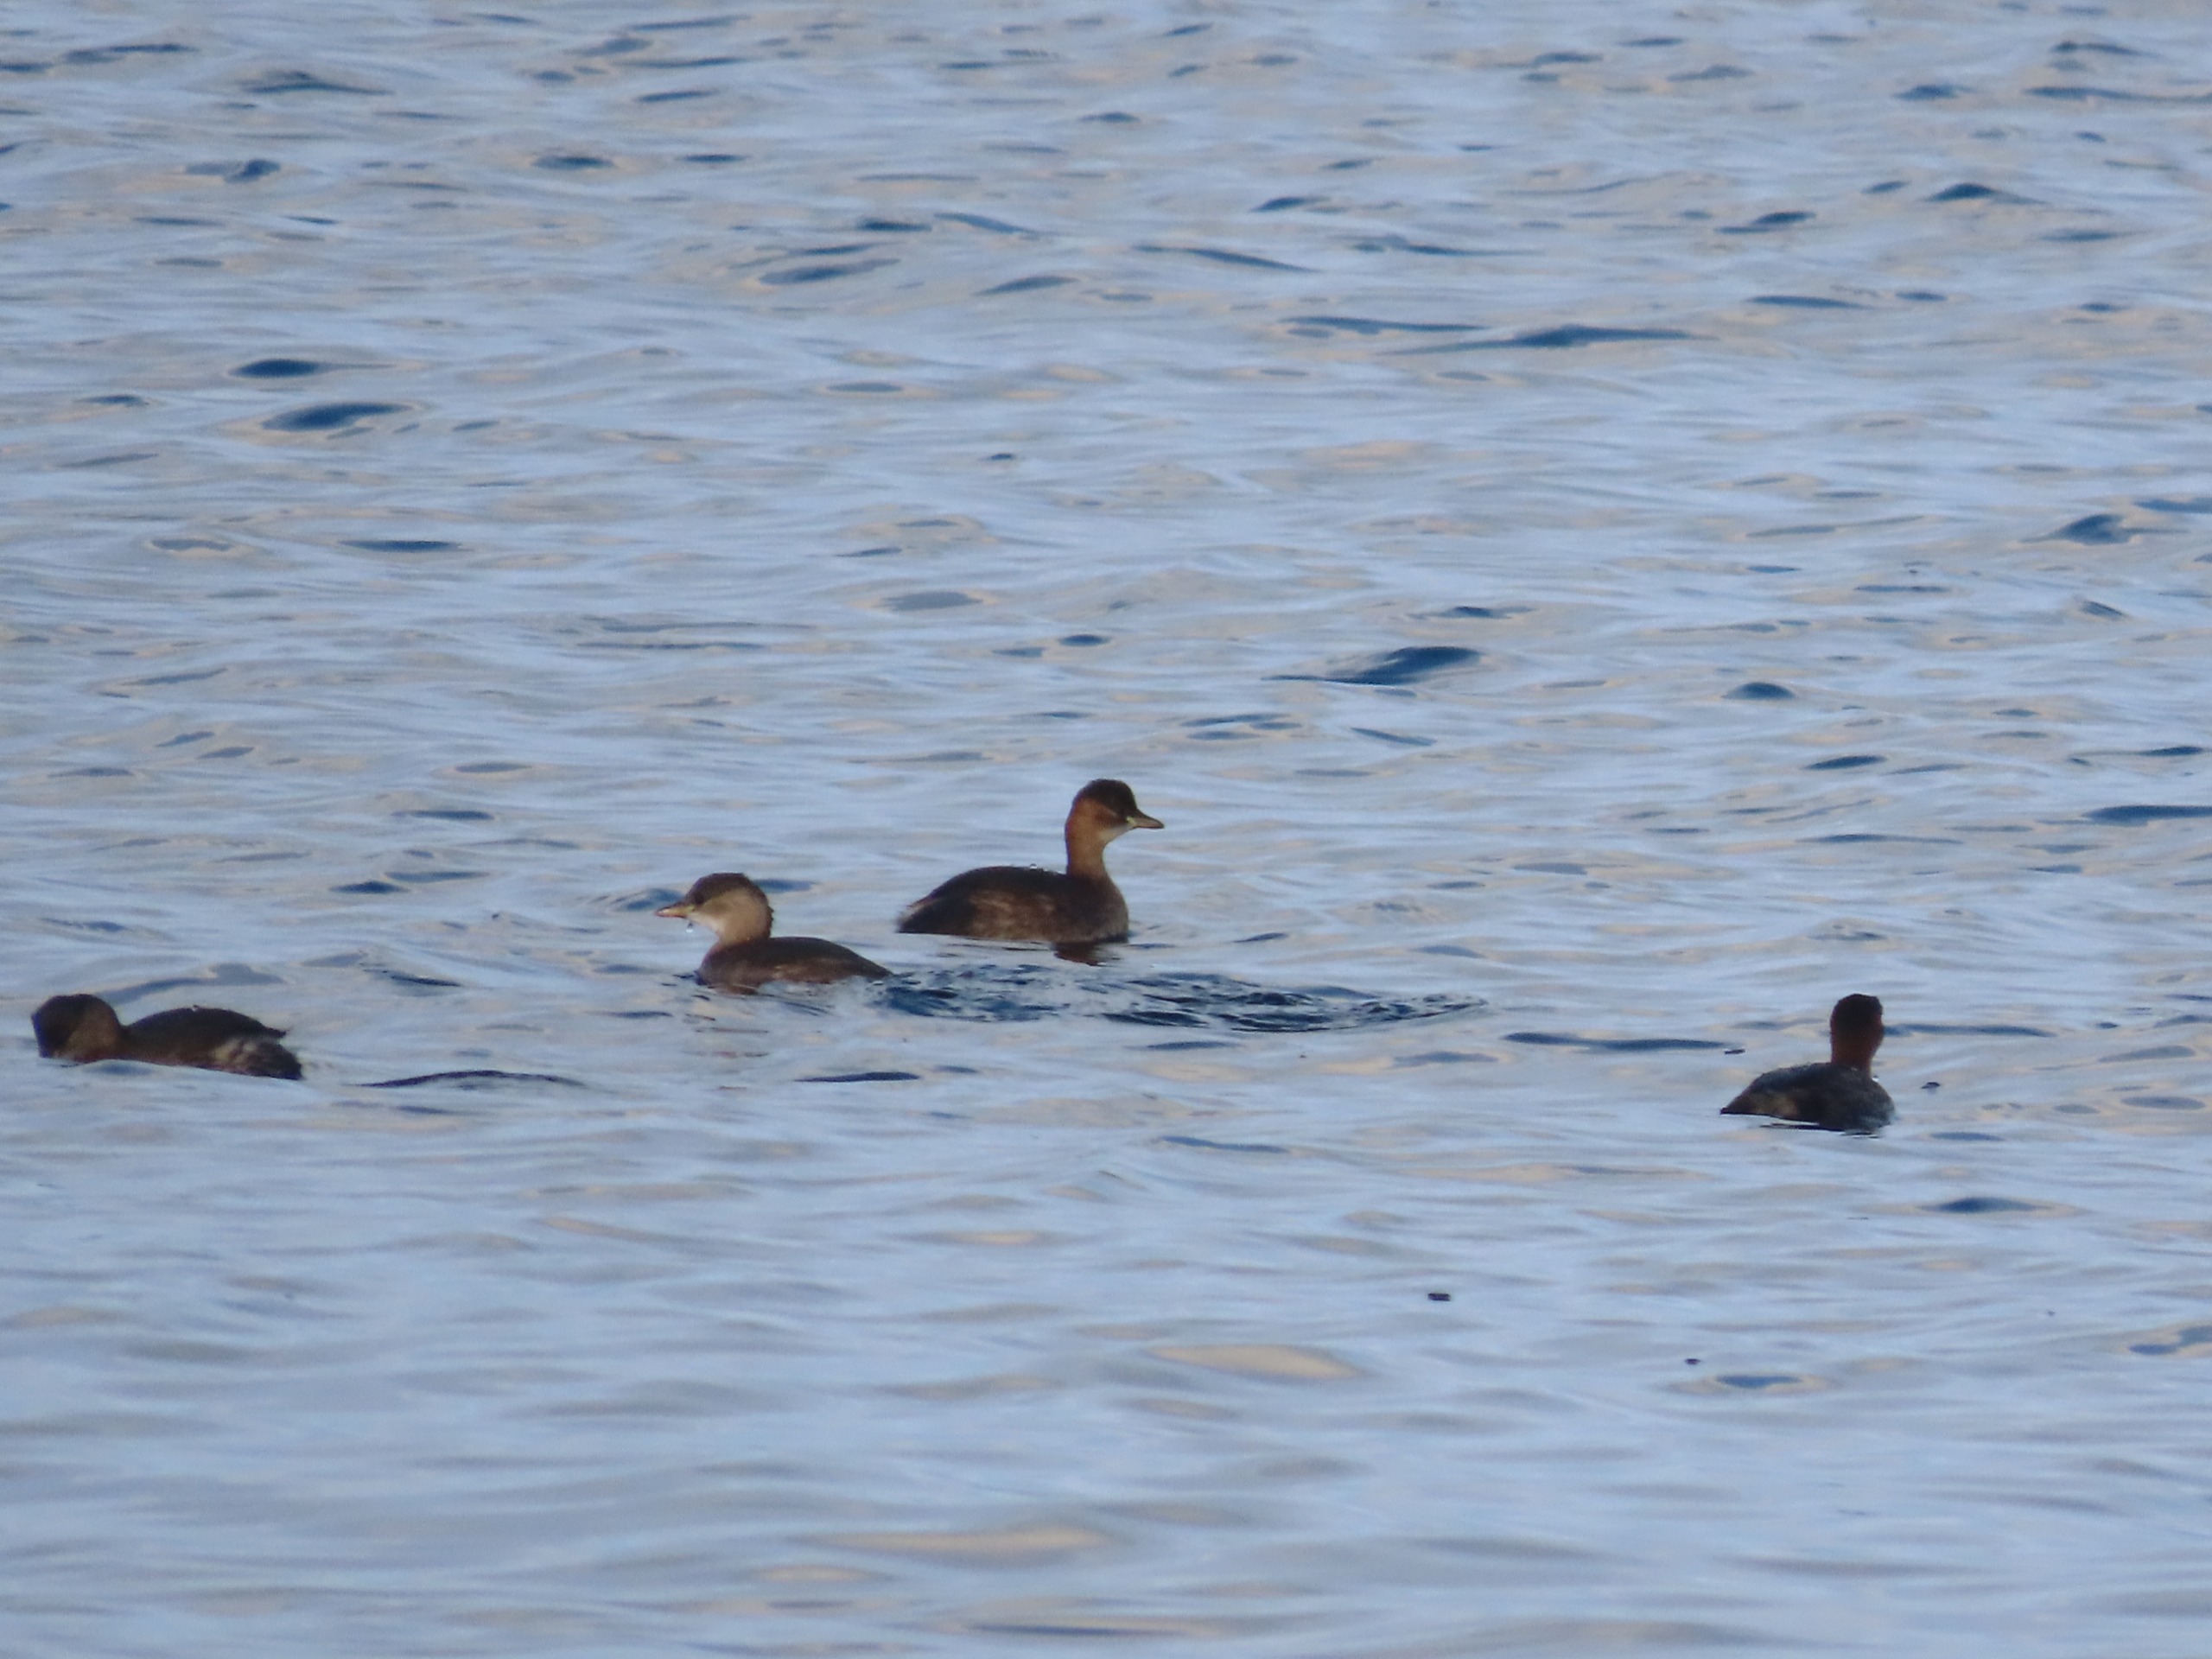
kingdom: Animalia
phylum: Chordata
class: Aves
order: Podicipediformes
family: Podicipedidae
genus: Tachybaptus
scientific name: Tachybaptus ruficollis
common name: Lille lappedykker
